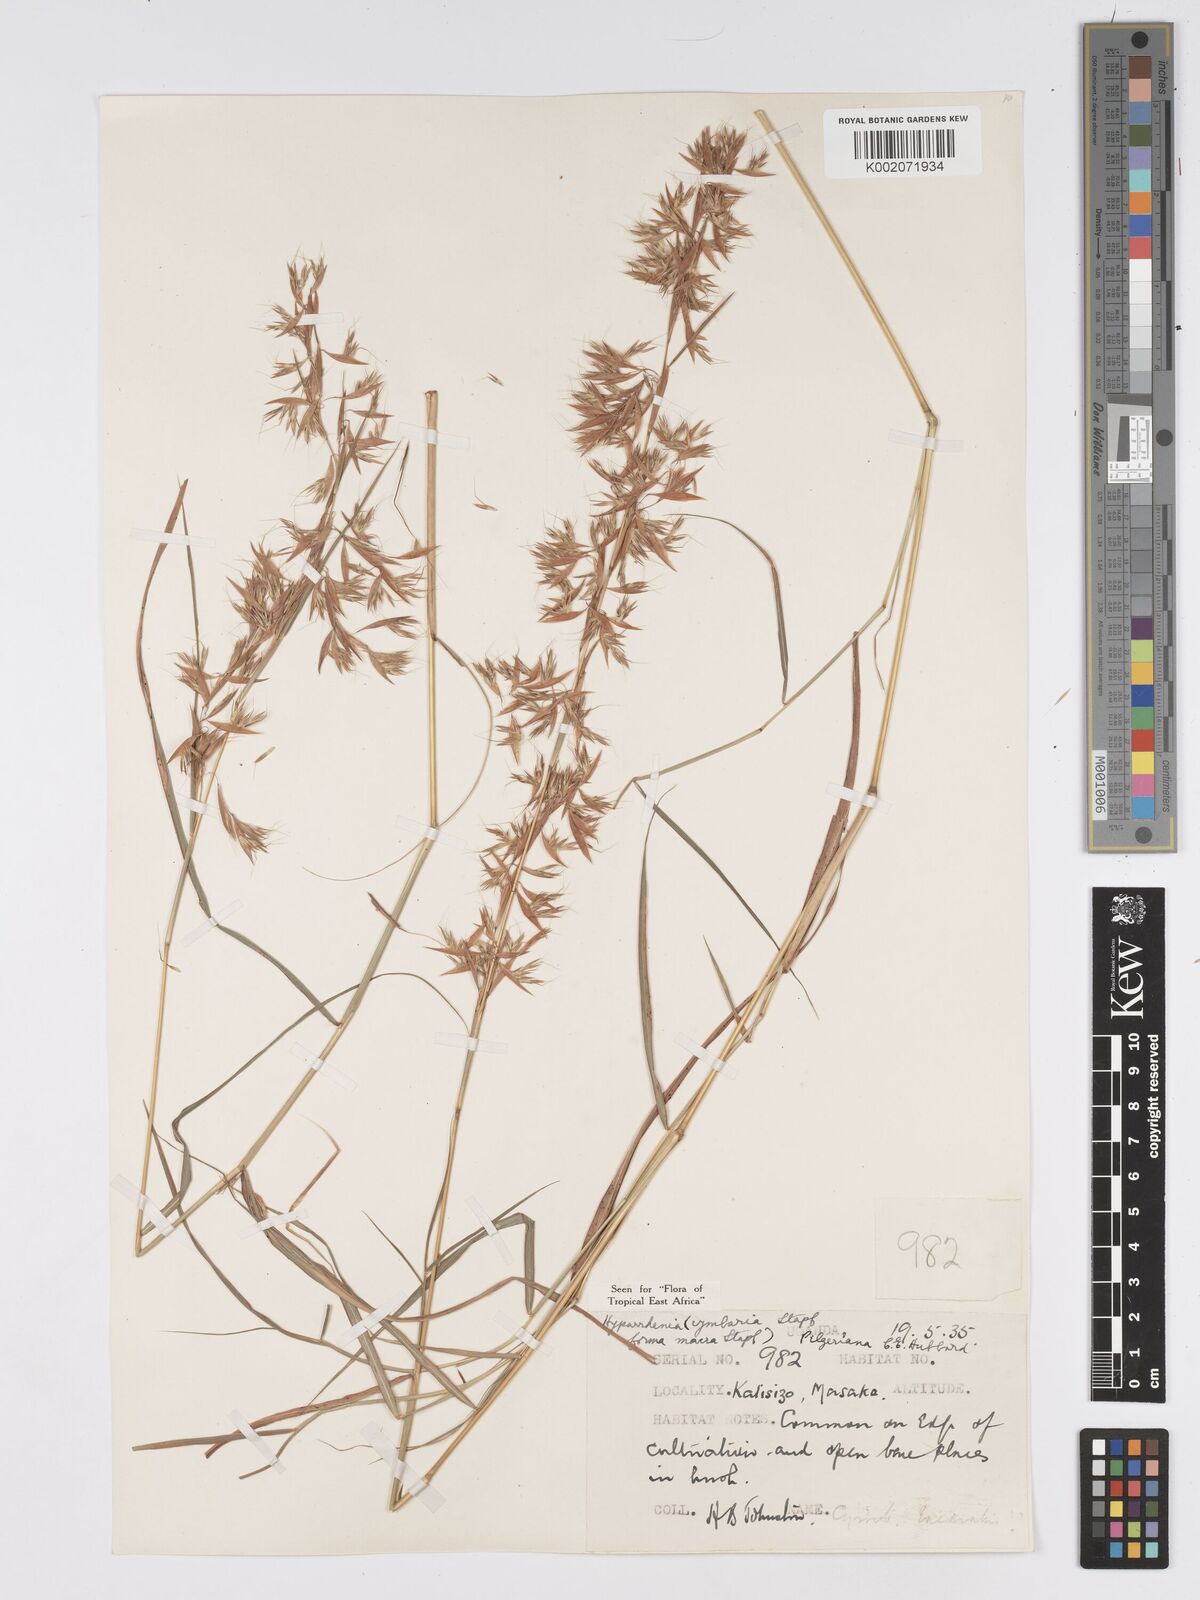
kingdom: Plantae
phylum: Tracheophyta
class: Liliopsida
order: Poales
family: Poaceae
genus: Hyparrhenia
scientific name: Hyparrhenia cymbaria
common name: Boat thatching grass
